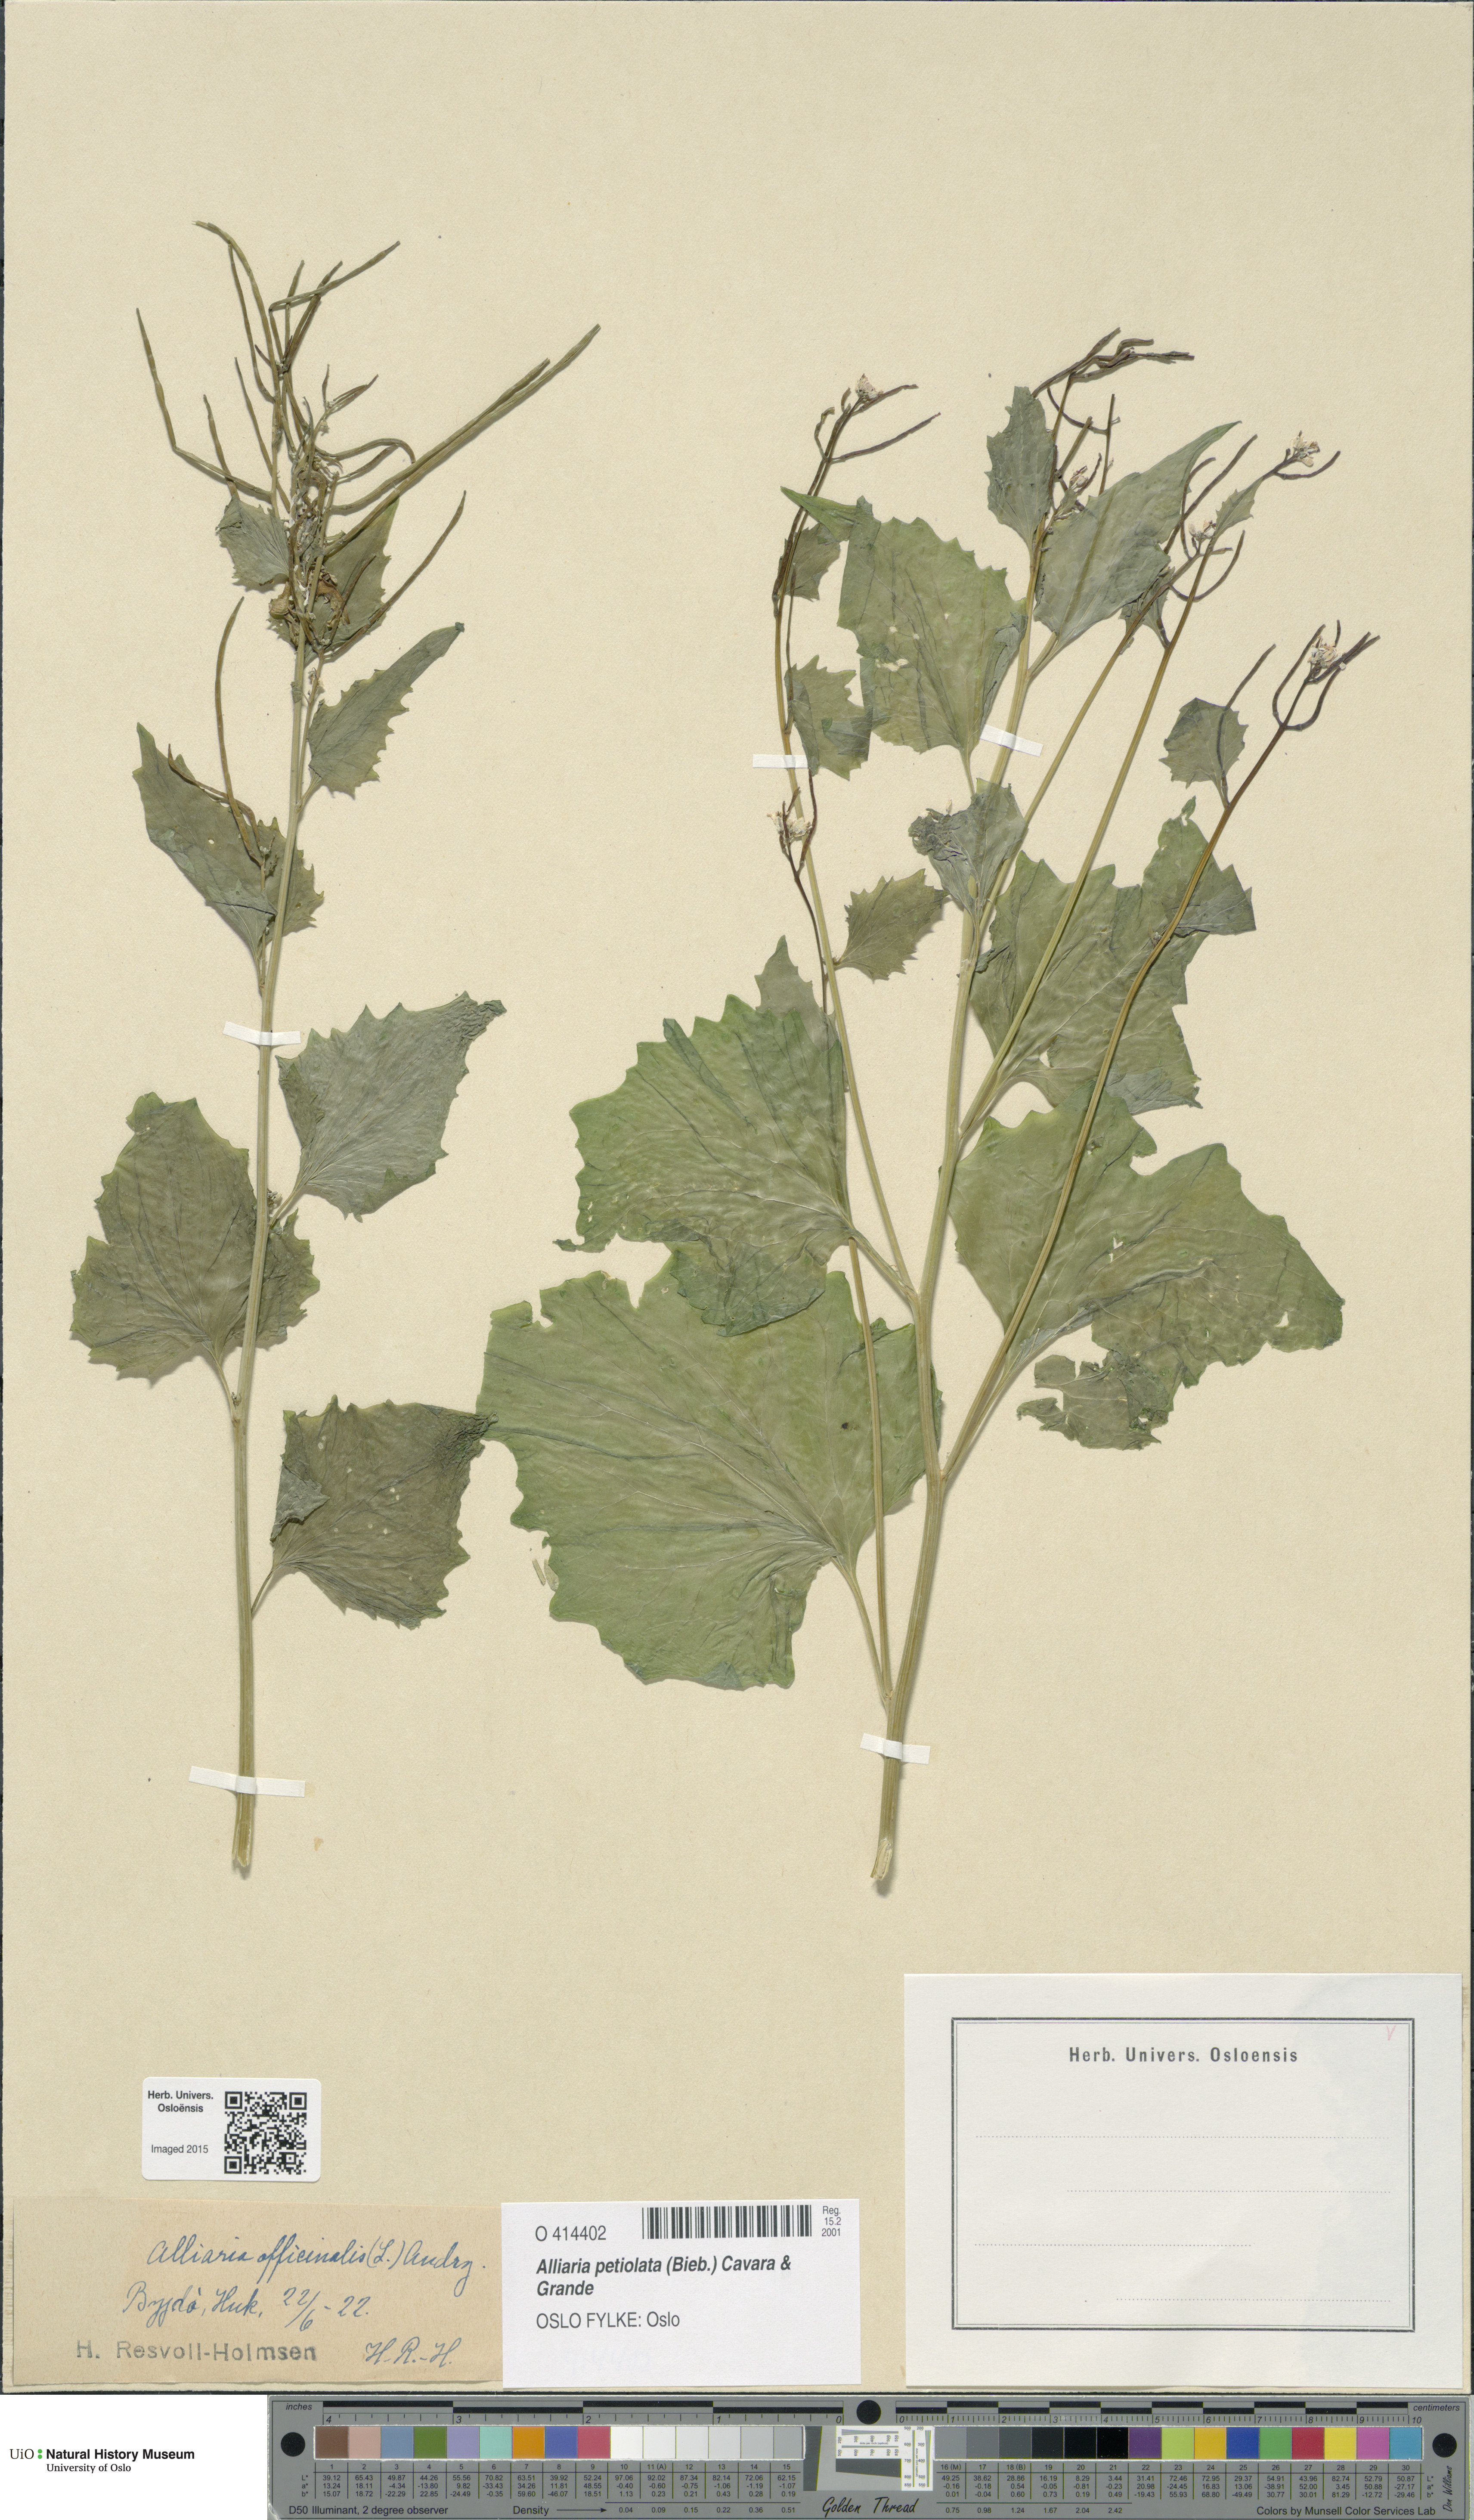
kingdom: Plantae
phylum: Tracheophyta
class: Magnoliopsida
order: Brassicales
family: Brassicaceae
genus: Alliaria
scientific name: Alliaria petiolata
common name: Garlic mustard
